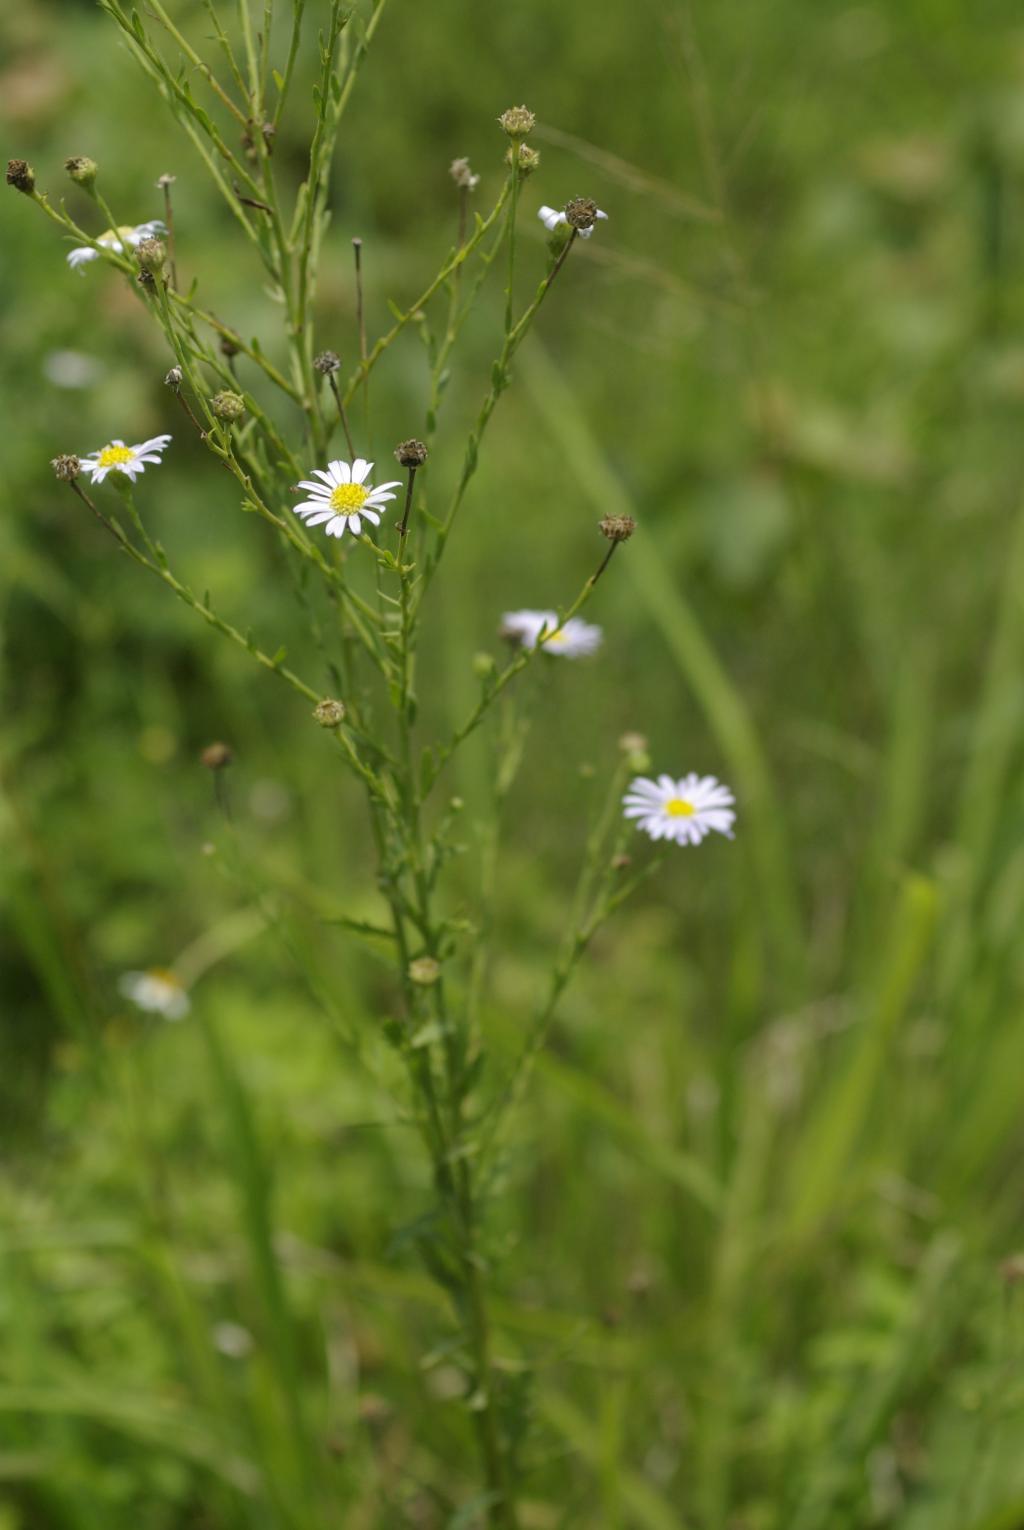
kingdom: Plantae
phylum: Tracheophyta
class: Magnoliopsida
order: Asterales
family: Asteraceae
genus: Aster
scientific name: Aster shimadae
